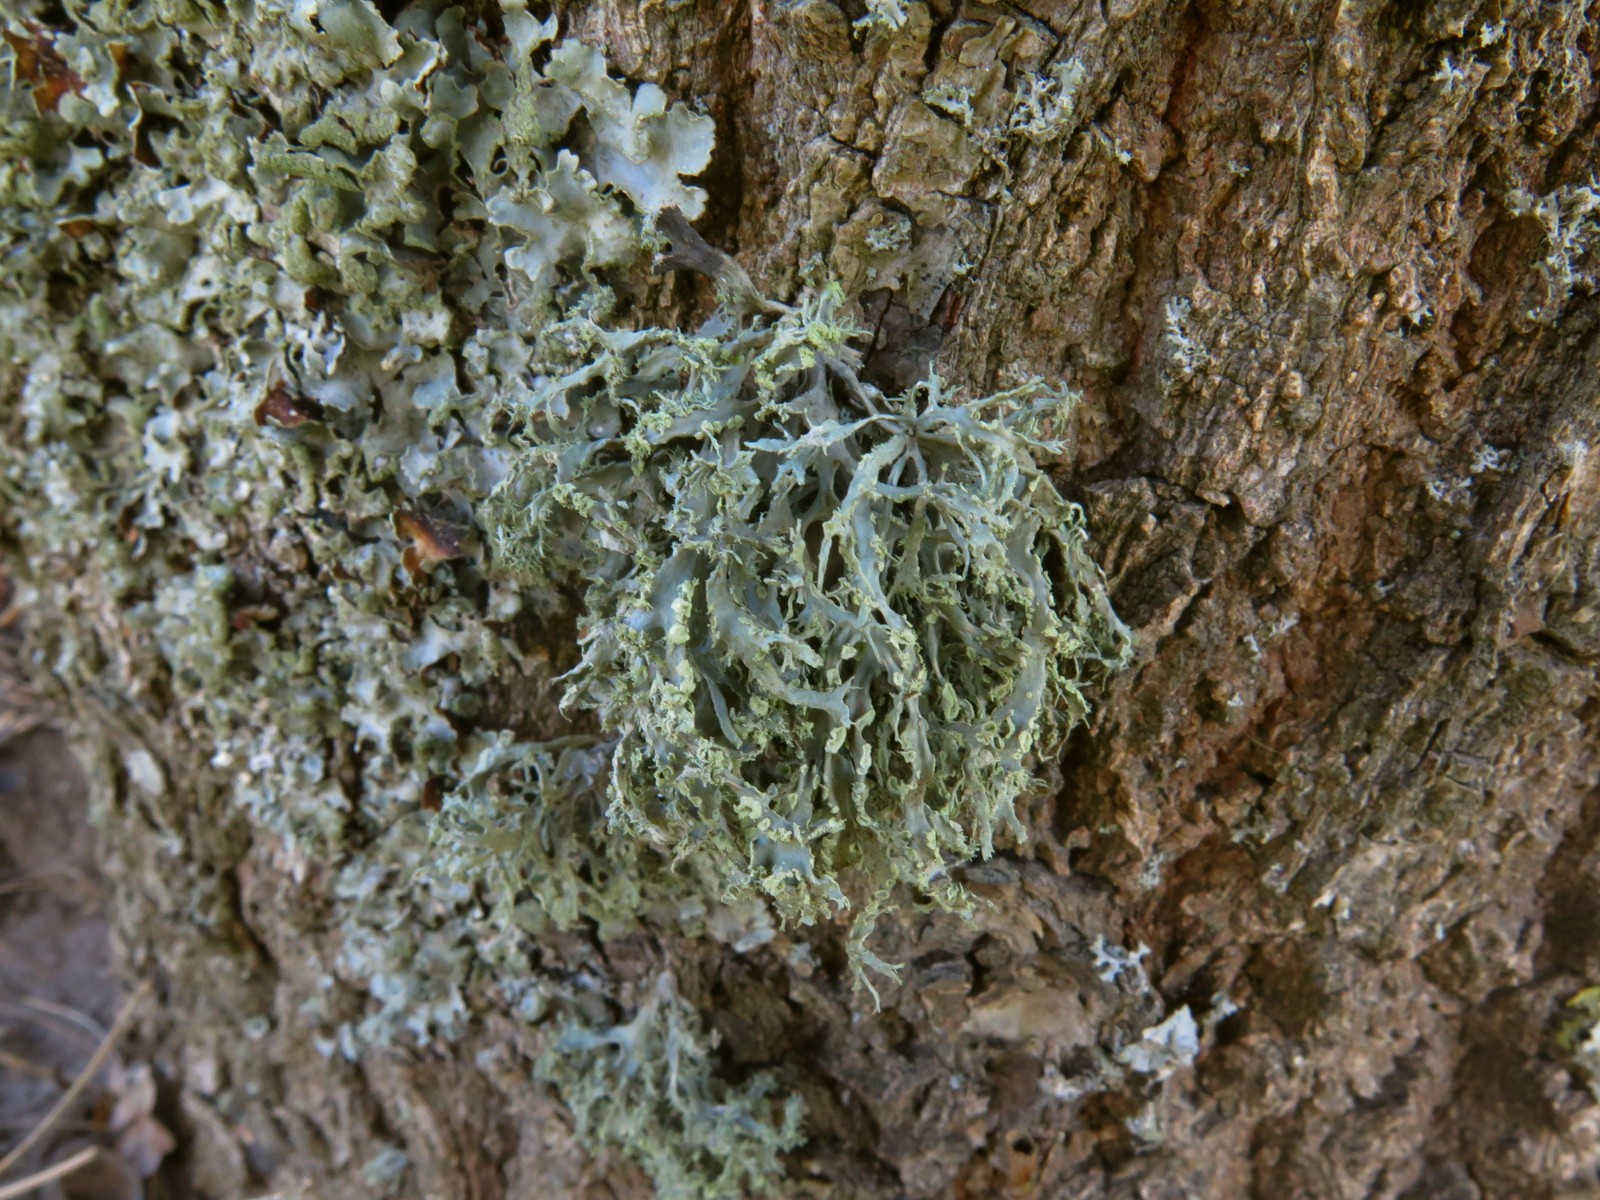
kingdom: Fungi
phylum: Ascomycota
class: Lecanoromycetes
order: Lecanorales
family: Ramalinaceae
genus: Ramalina
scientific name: Ramalina farinacea
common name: melet grenlav
